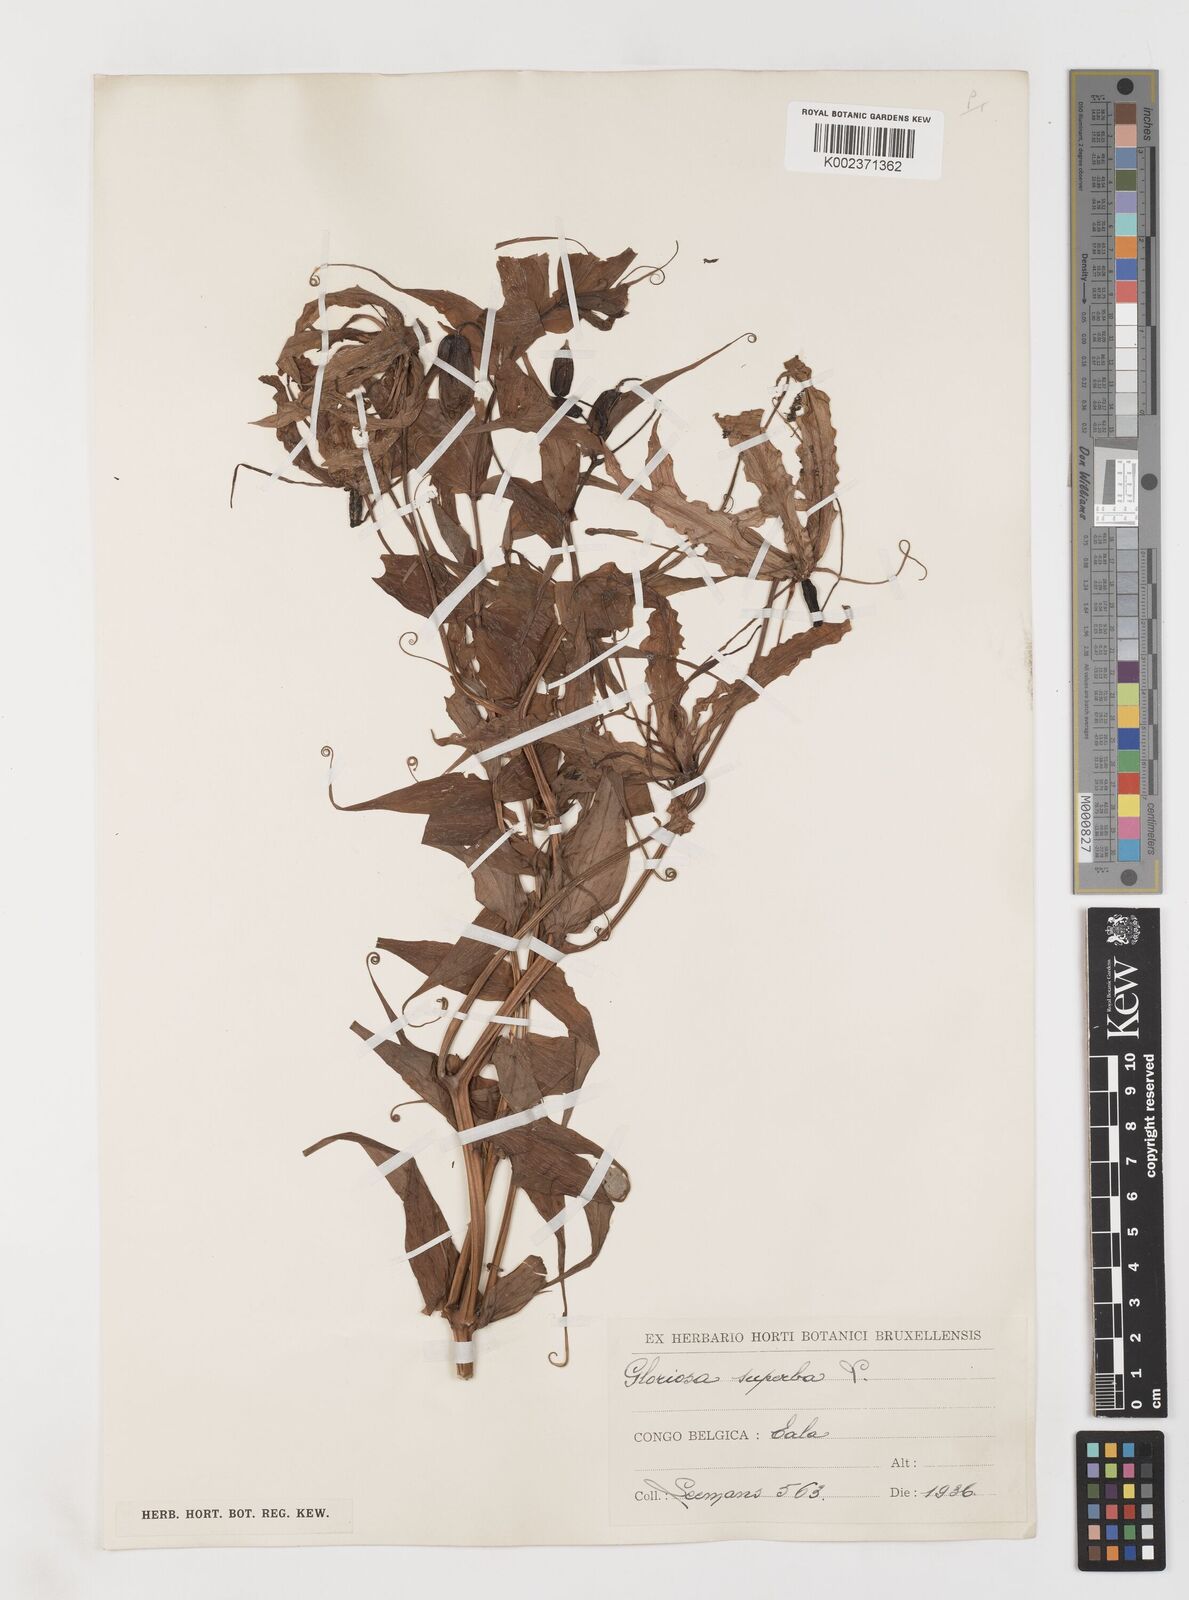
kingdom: Plantae
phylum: Tracheophyta
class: Liliopsida
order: Liliales
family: Colchicaceae
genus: Gloriosa
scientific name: Gloriosa superba
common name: Flame lily
